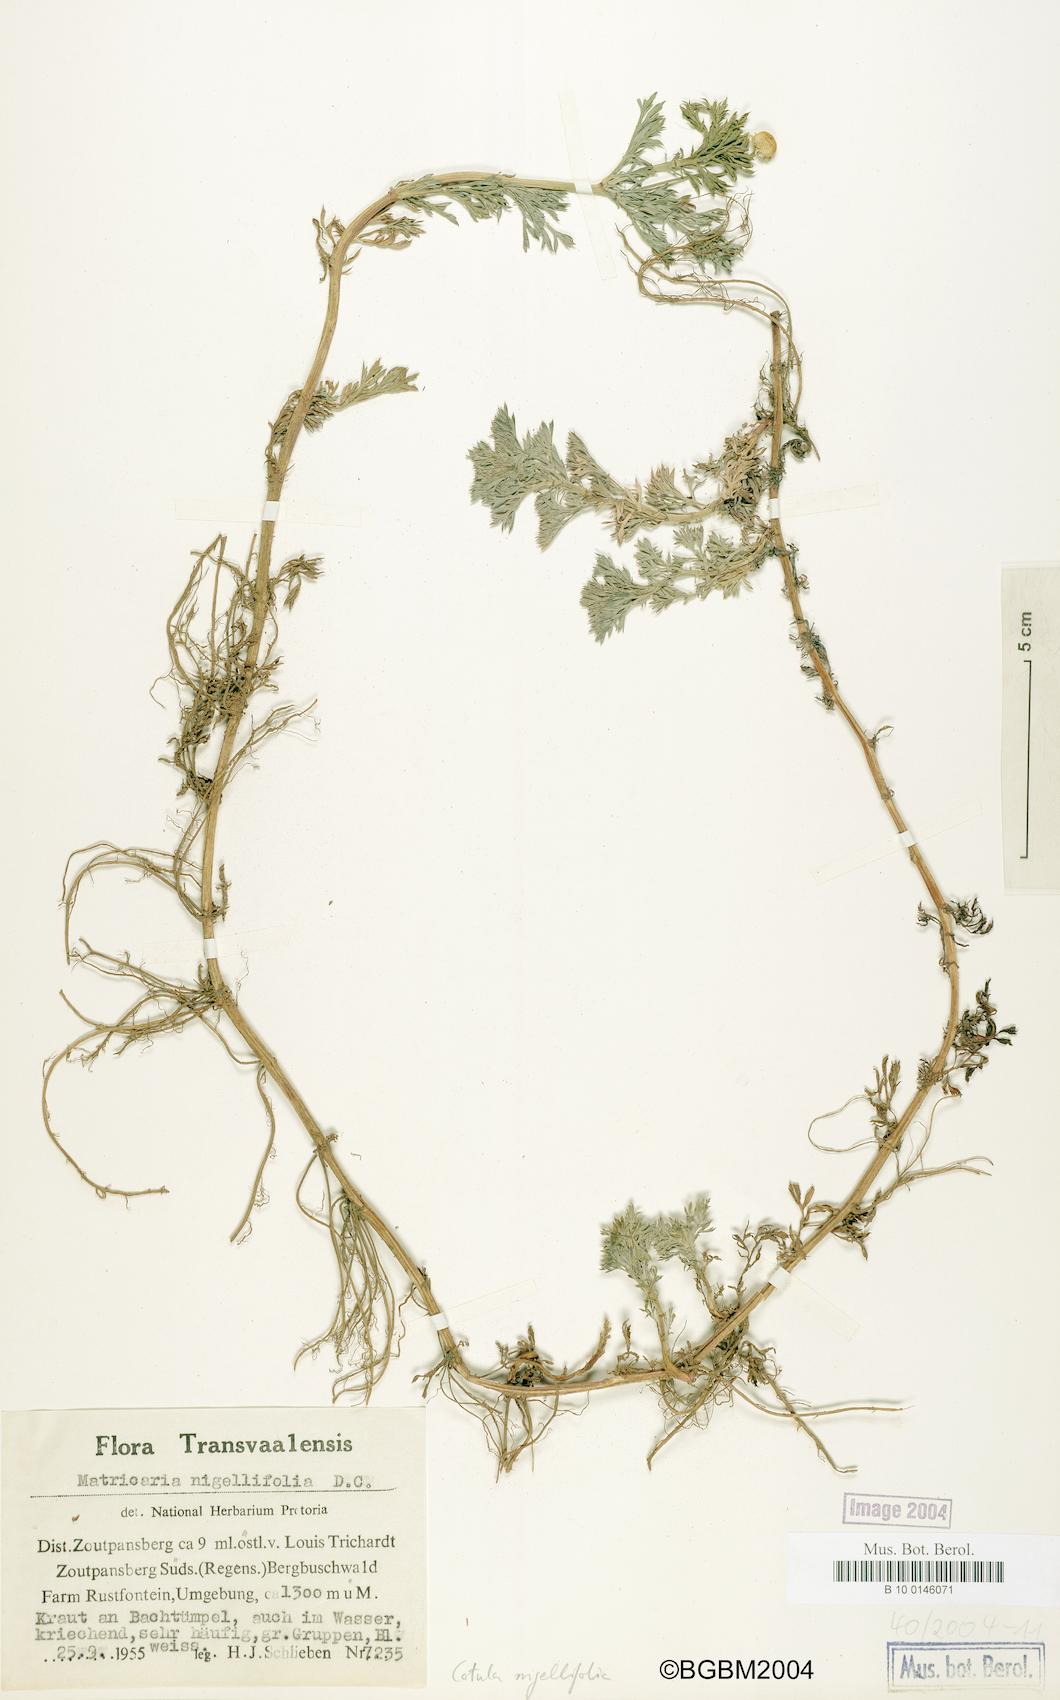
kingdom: Plantae
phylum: Tracheophyta
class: Magnoliopsida
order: Asterales
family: Asteraceae
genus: Cotula
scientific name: Cotula nigellifolia
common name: Staggerweed
